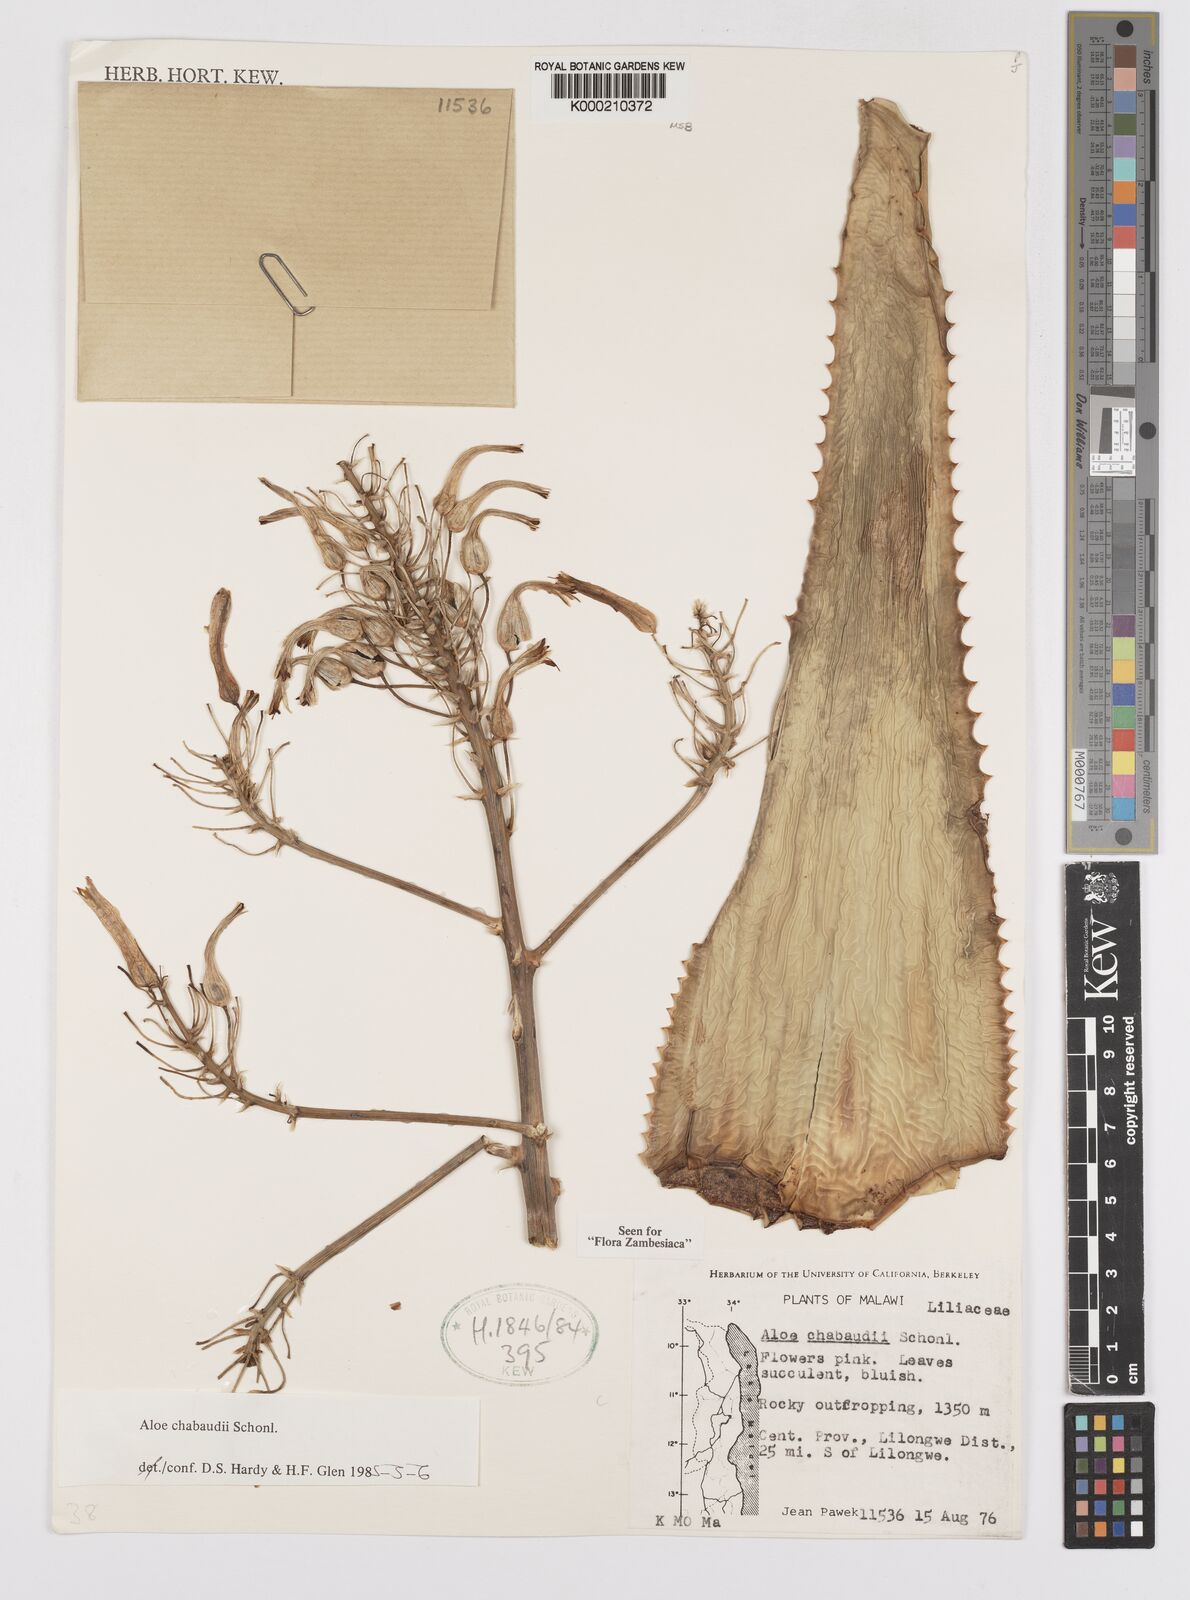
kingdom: Plantae
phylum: Tracheophyta
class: Liliopsida
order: Asparagales
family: Asphodelaceae
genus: Aloe
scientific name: Aloe chabaudii
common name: Chabaud's aloe
